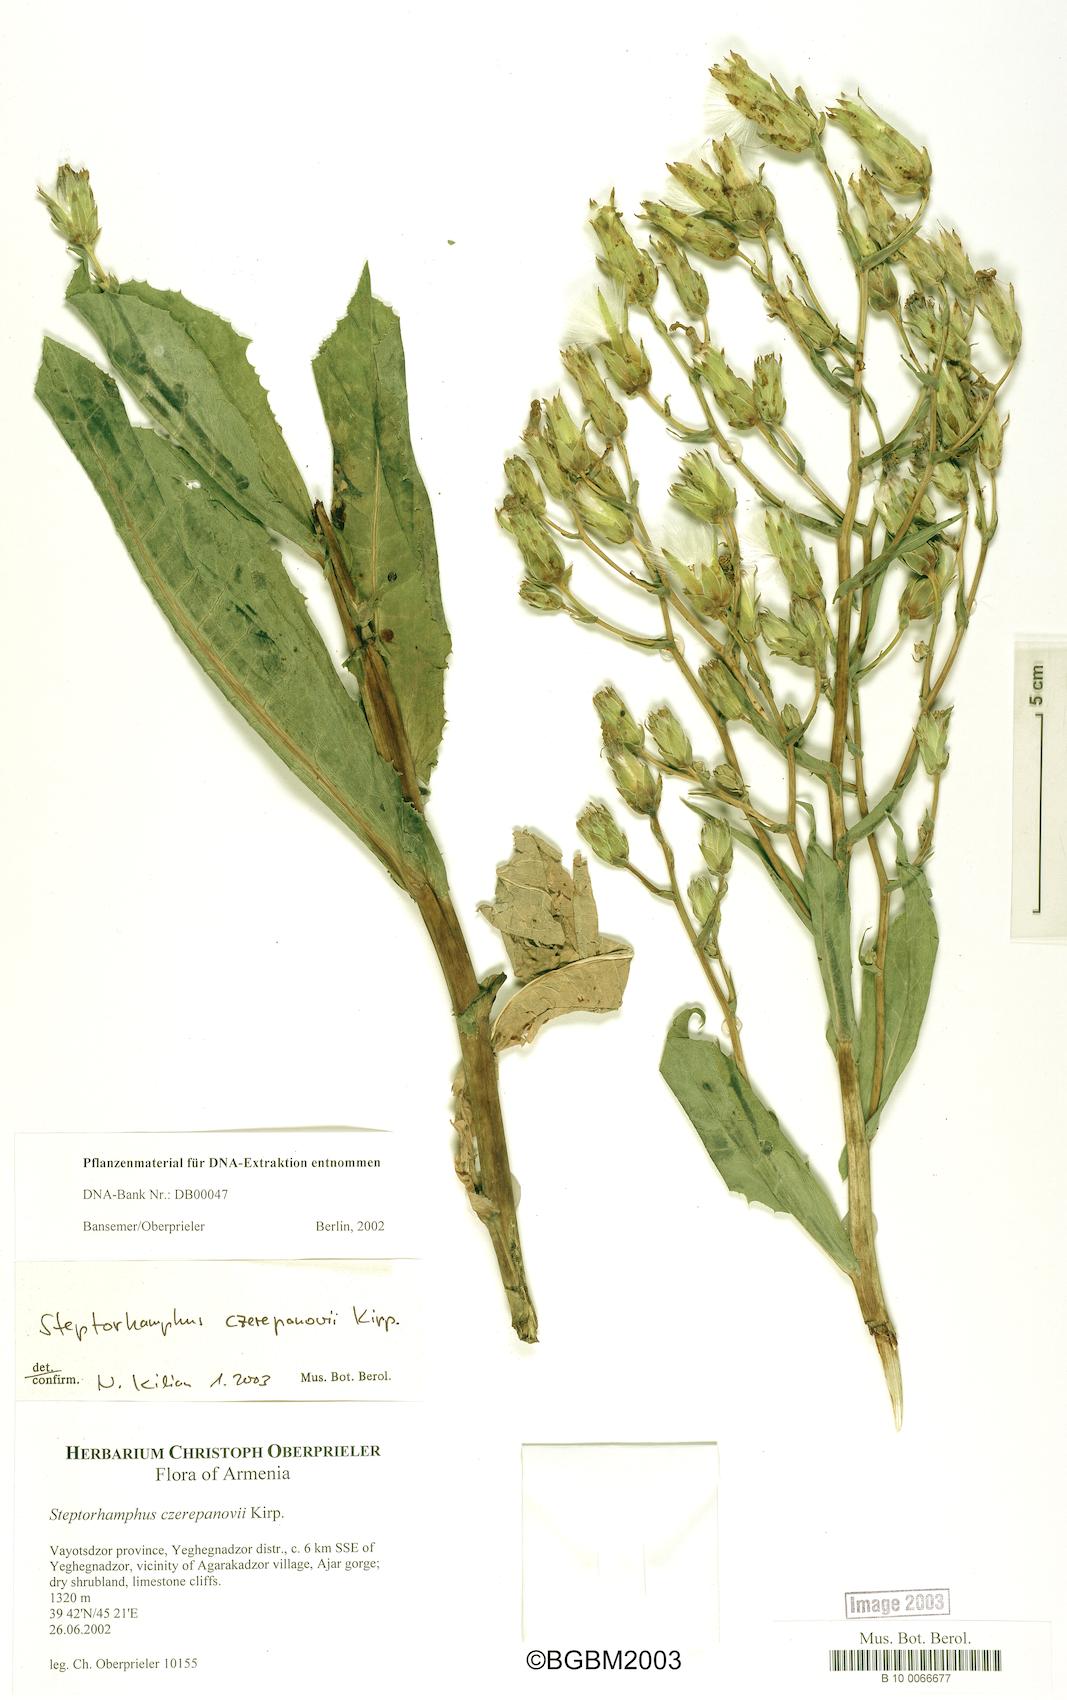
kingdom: Plantae
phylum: Tracheophyta
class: Magnoliopsida
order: Asterales
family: Asteraceae
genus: Lactuca
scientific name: Lactuca czerepanovii
